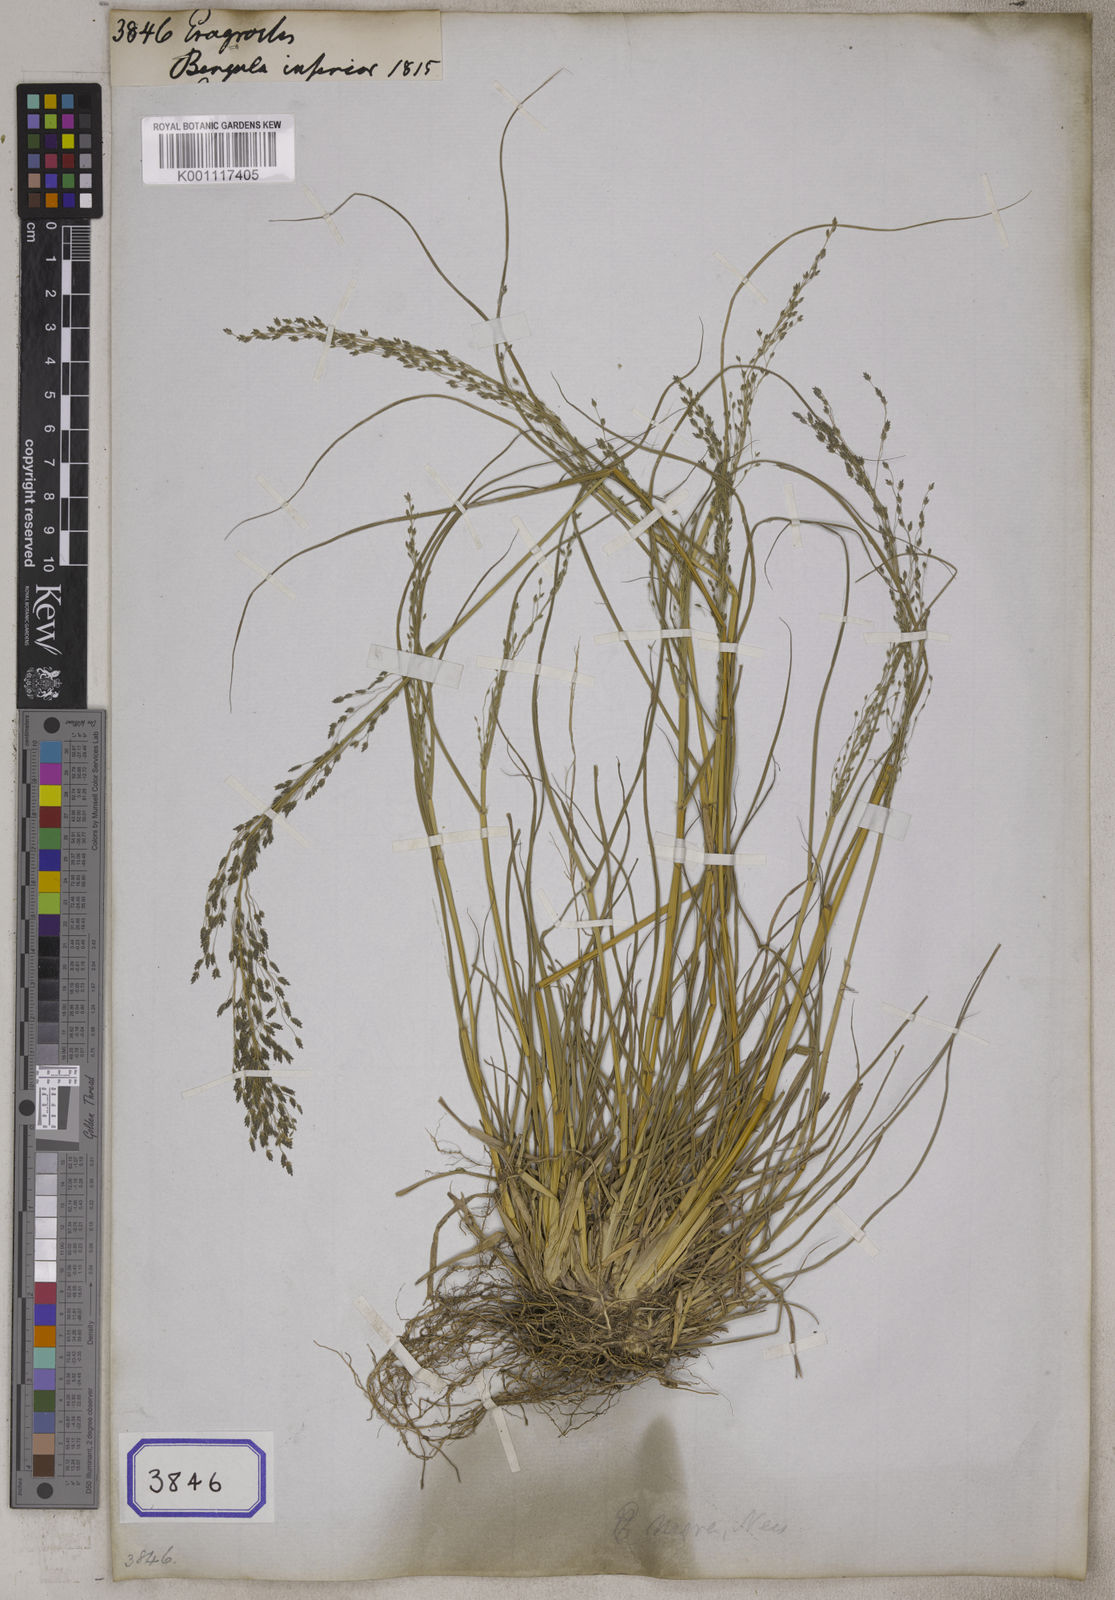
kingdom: Plantae
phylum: Tracheophyta
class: Liliopsida
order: Poales
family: Poaceae
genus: Eragrostis
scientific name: Eragrostis
